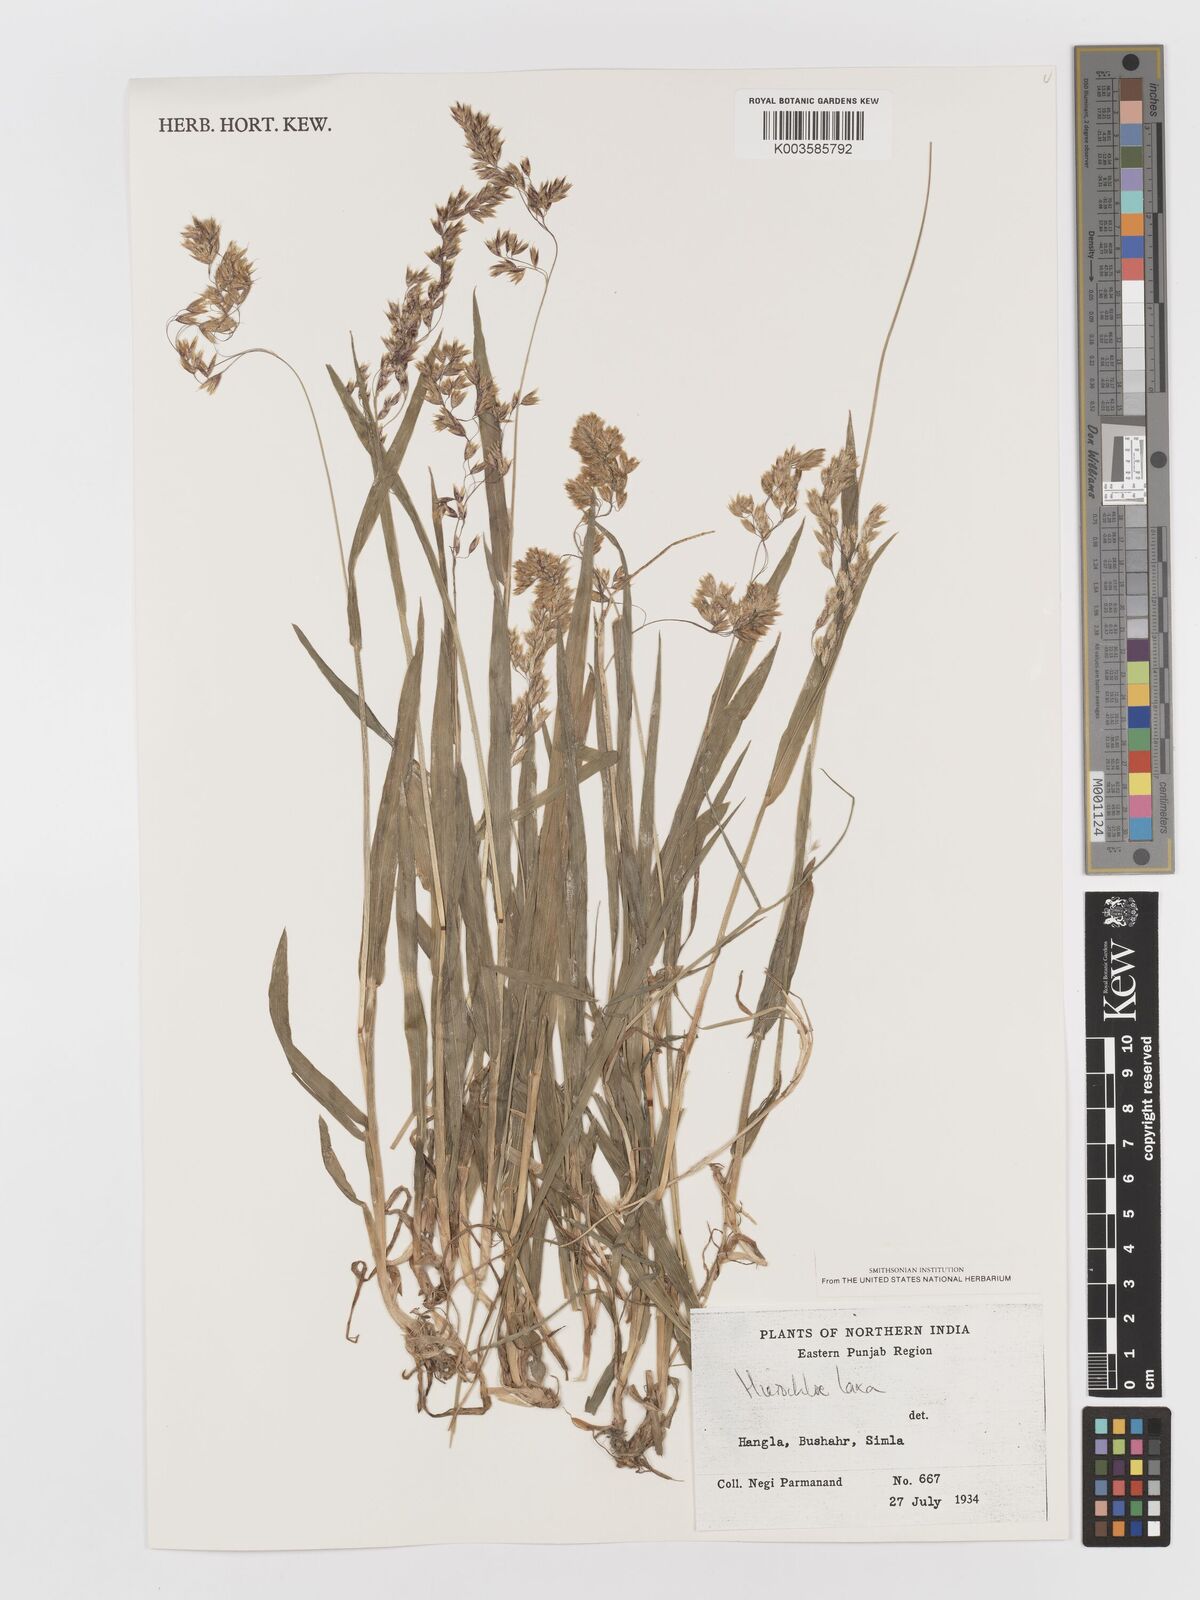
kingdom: Plantae
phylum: Tracheophyta
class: Liliopsida
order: Poales
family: Poaceae
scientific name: Poaceae
